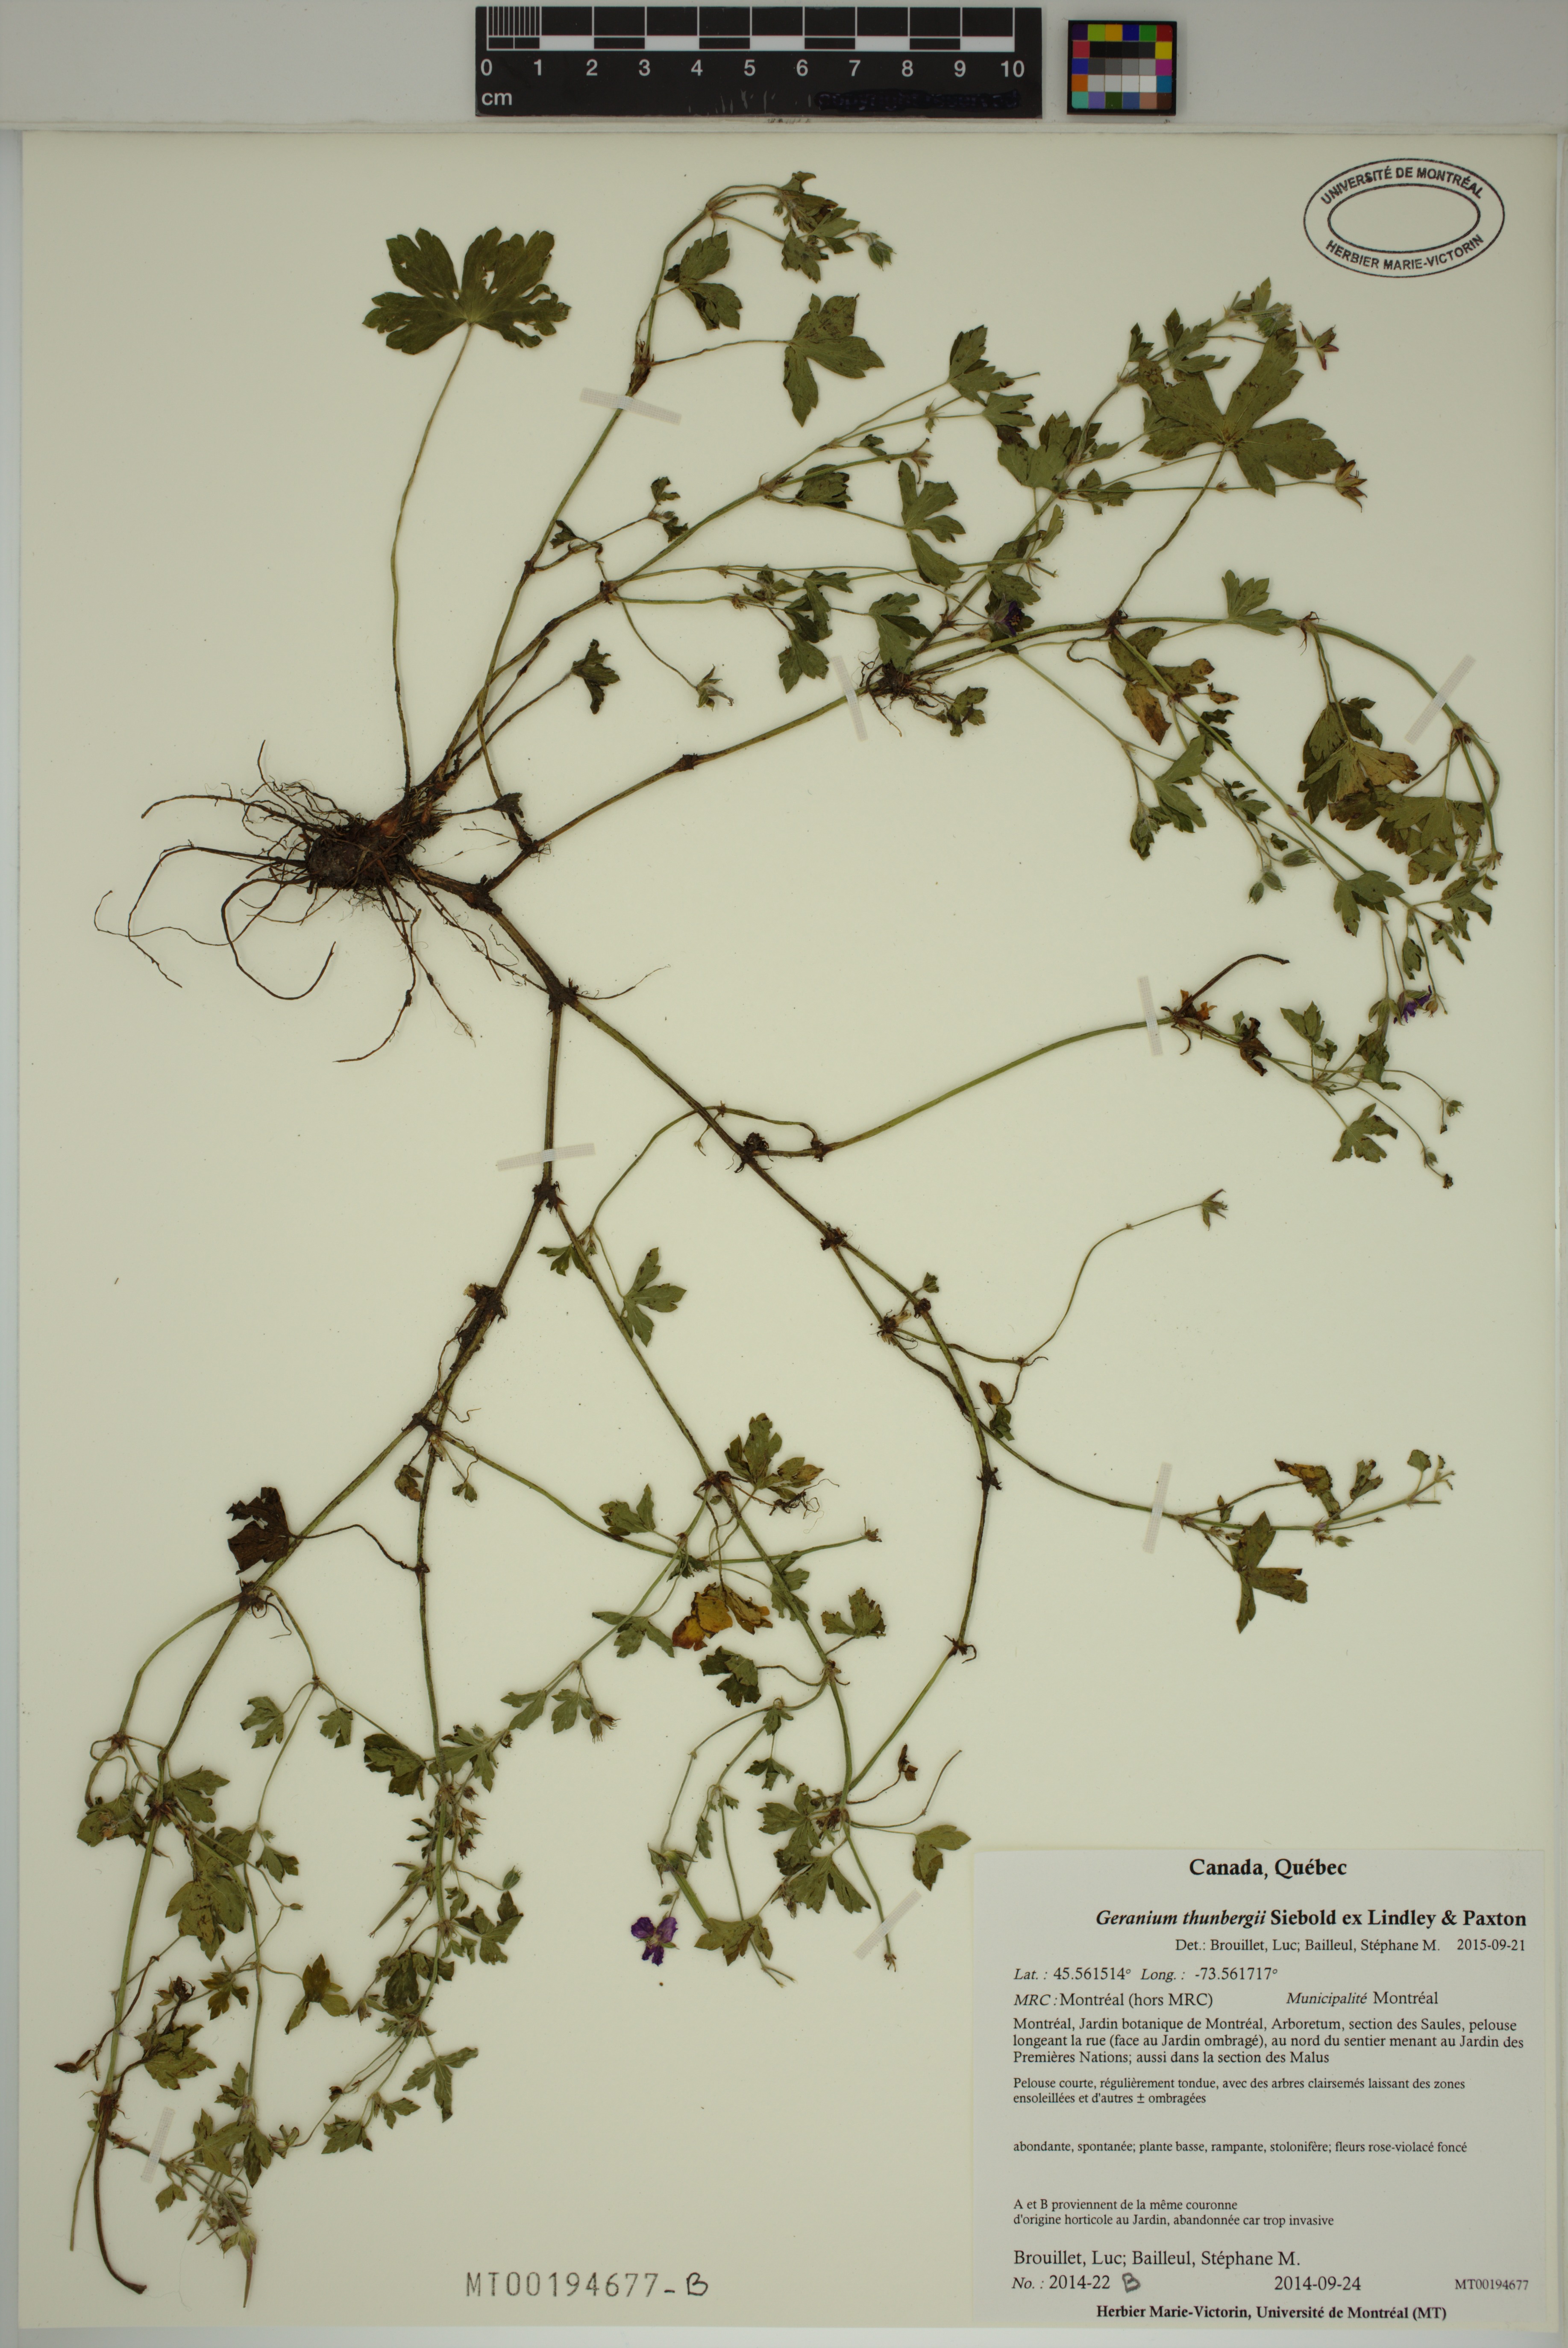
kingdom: Plantae
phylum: Tracheophyta
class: Magnoliopsida
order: Geraniales
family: Geraniaceae
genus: Geranium
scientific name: Geranium thunbergii
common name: Dewdrop crane's-bill
